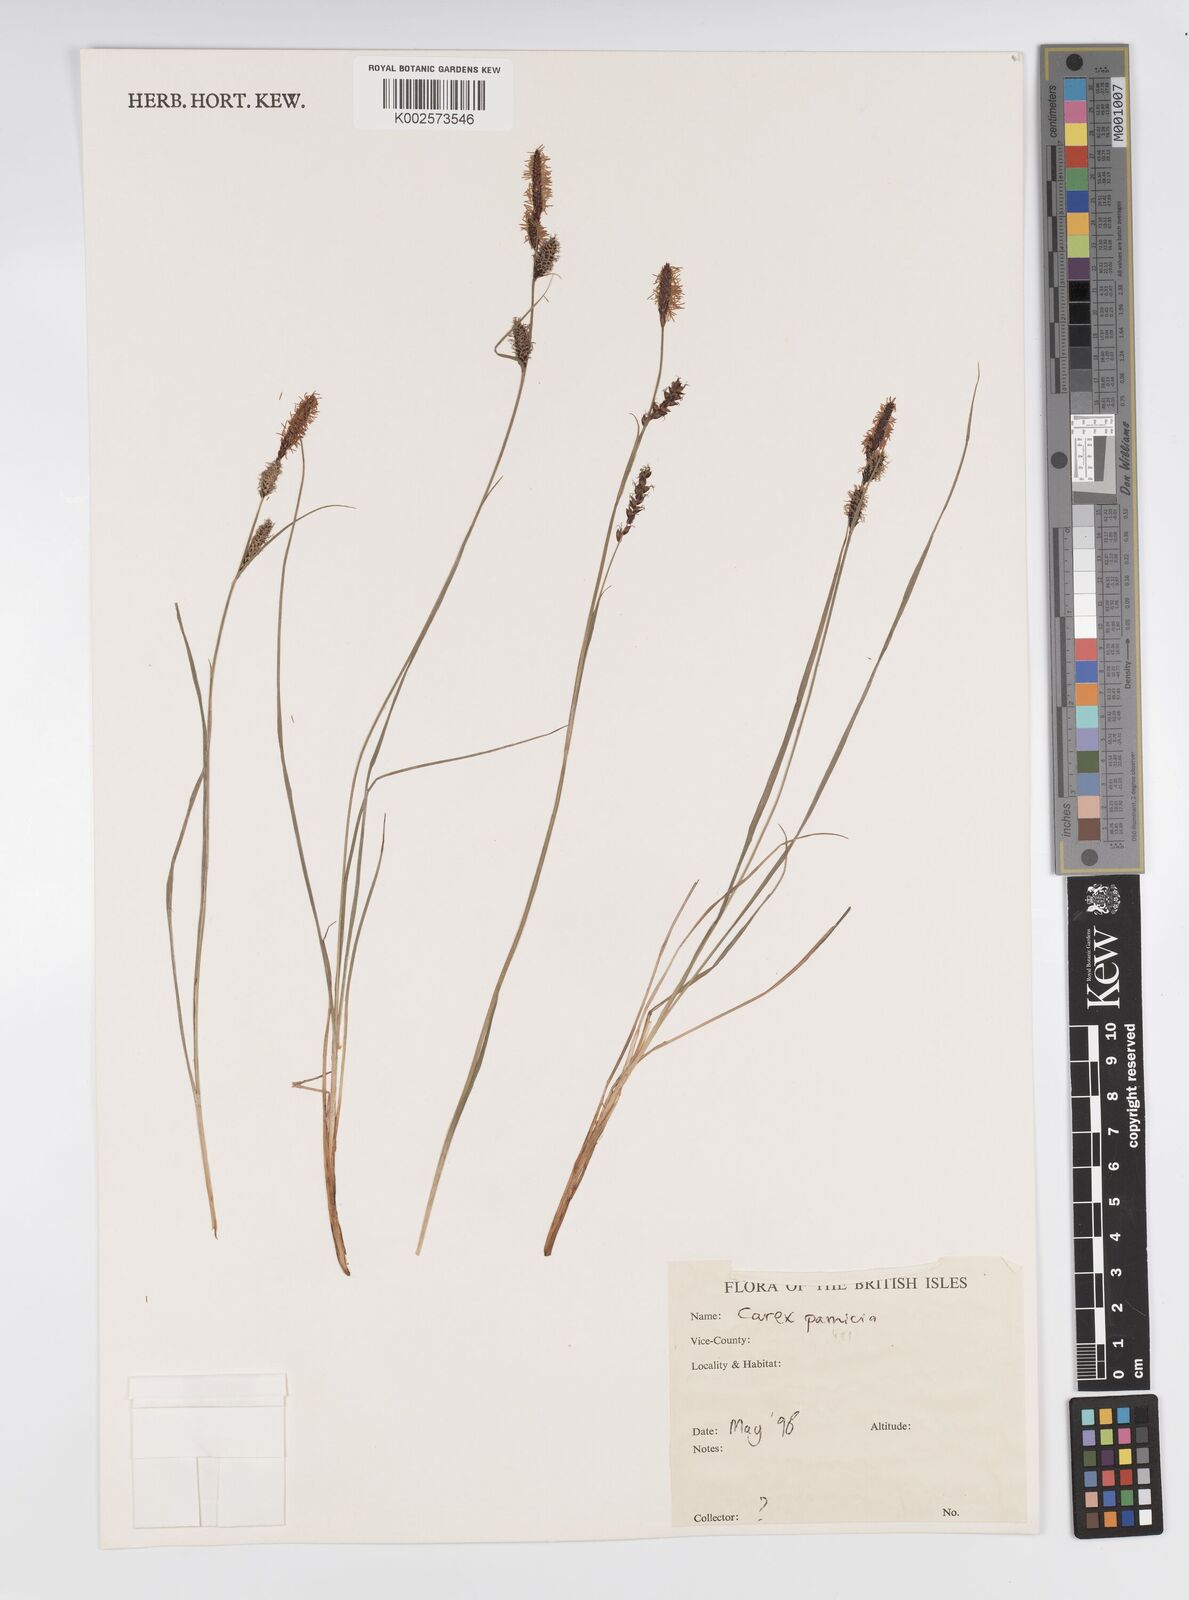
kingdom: Plantae
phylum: Tracheophyta
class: Liliopsida
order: Poales
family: Cyperaceae
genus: Carex
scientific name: Carex panicea
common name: Carnation sedge
